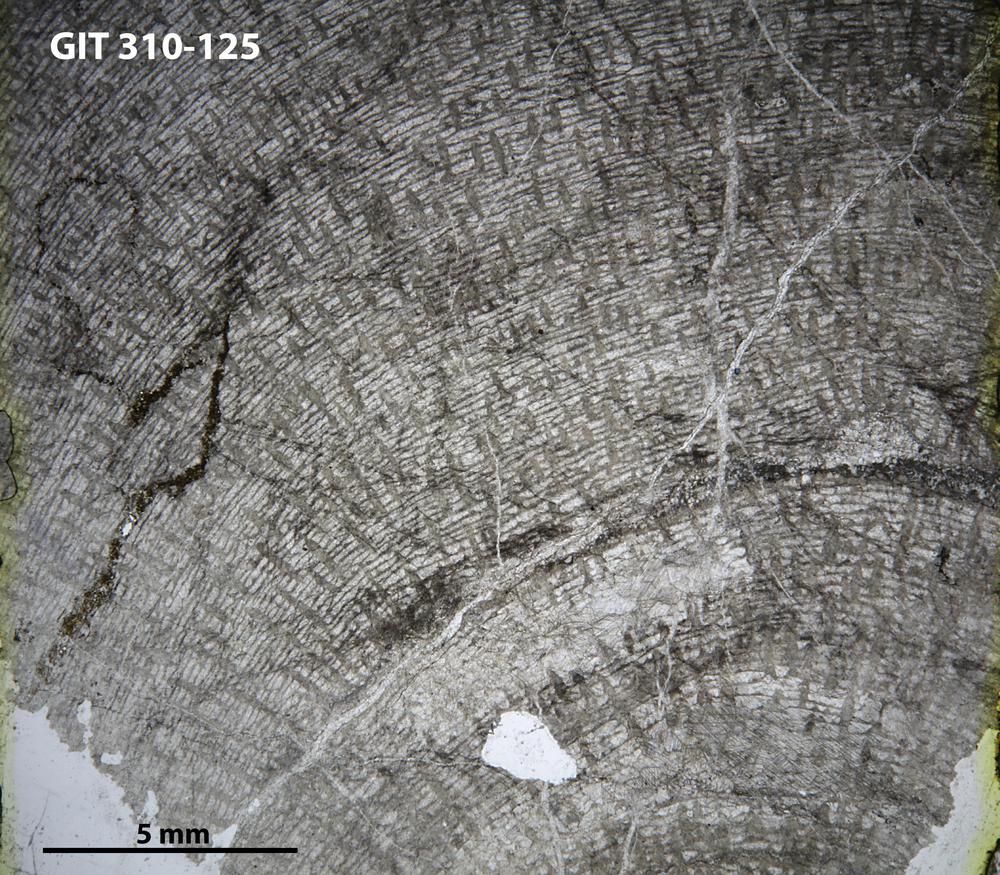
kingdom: Animalia
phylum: Porifera
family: Labechiidae
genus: Labechia
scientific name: Labechia
